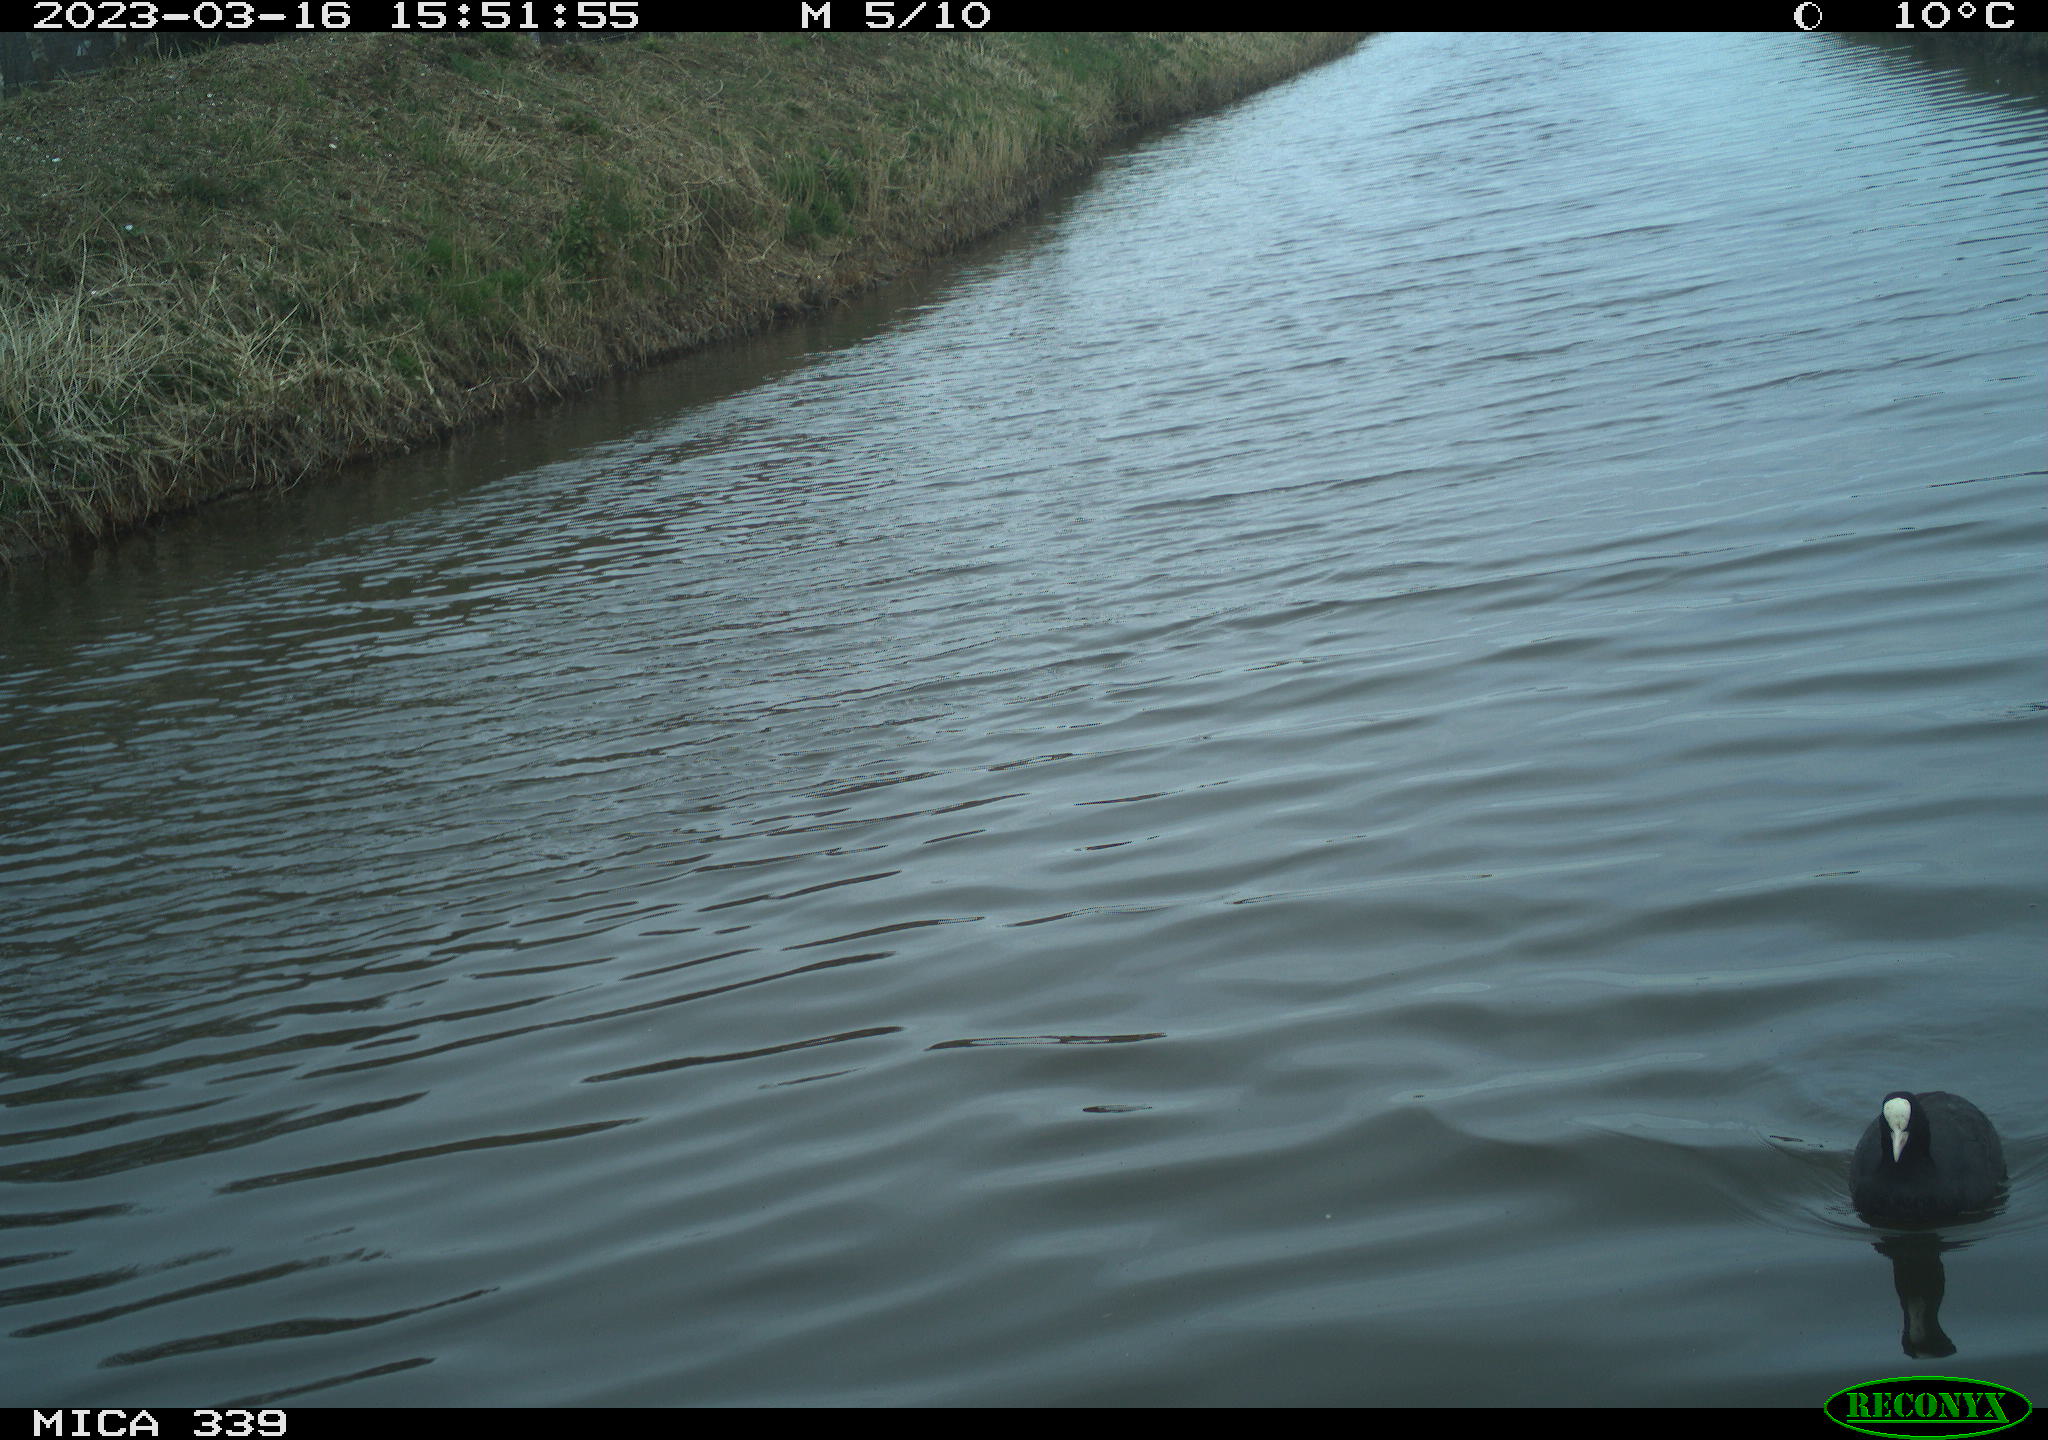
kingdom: Animalia
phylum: Chordata
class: Aves
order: Gruiformes
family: Rallidae
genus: Gallinula
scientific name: Gallinula chloropus
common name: Common moorhen
